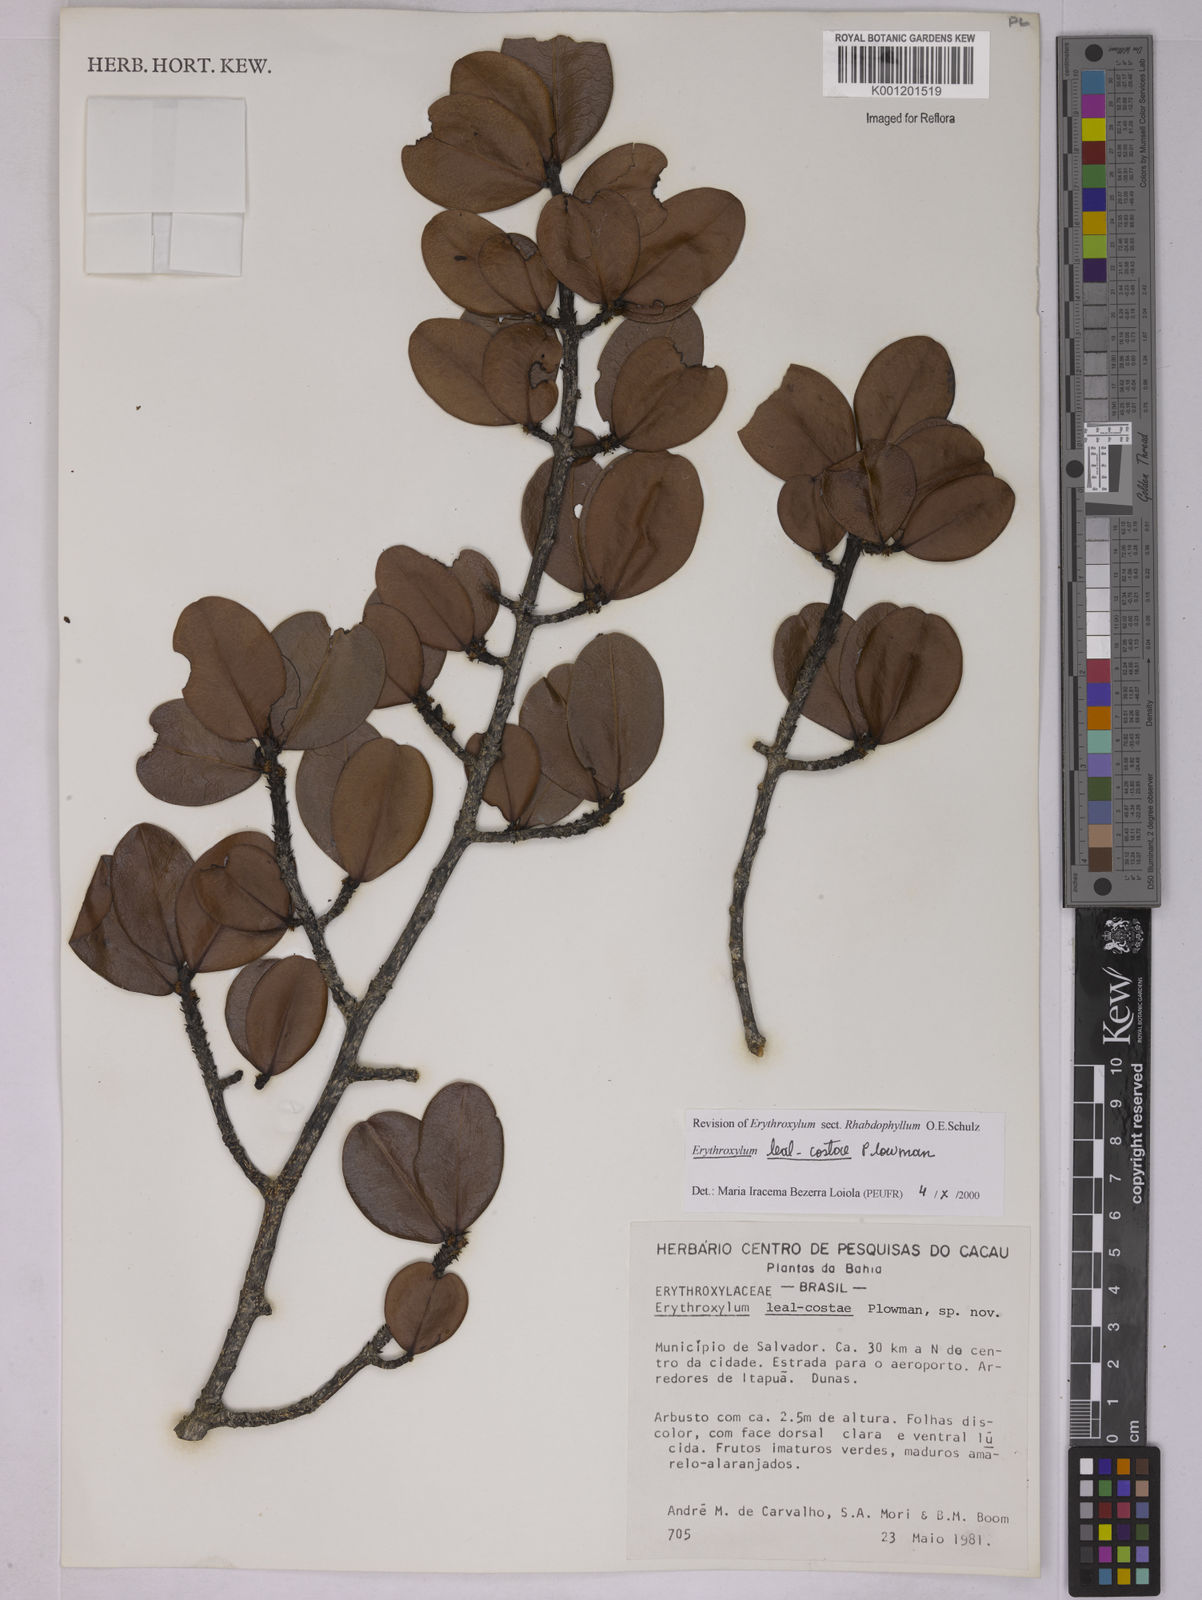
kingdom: Plantae
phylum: Tracheophyta
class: Magnoliopsida
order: Malpighiales
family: Erythroxylaceae
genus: Erythroxylum
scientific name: Erythroxylum leal-costae
